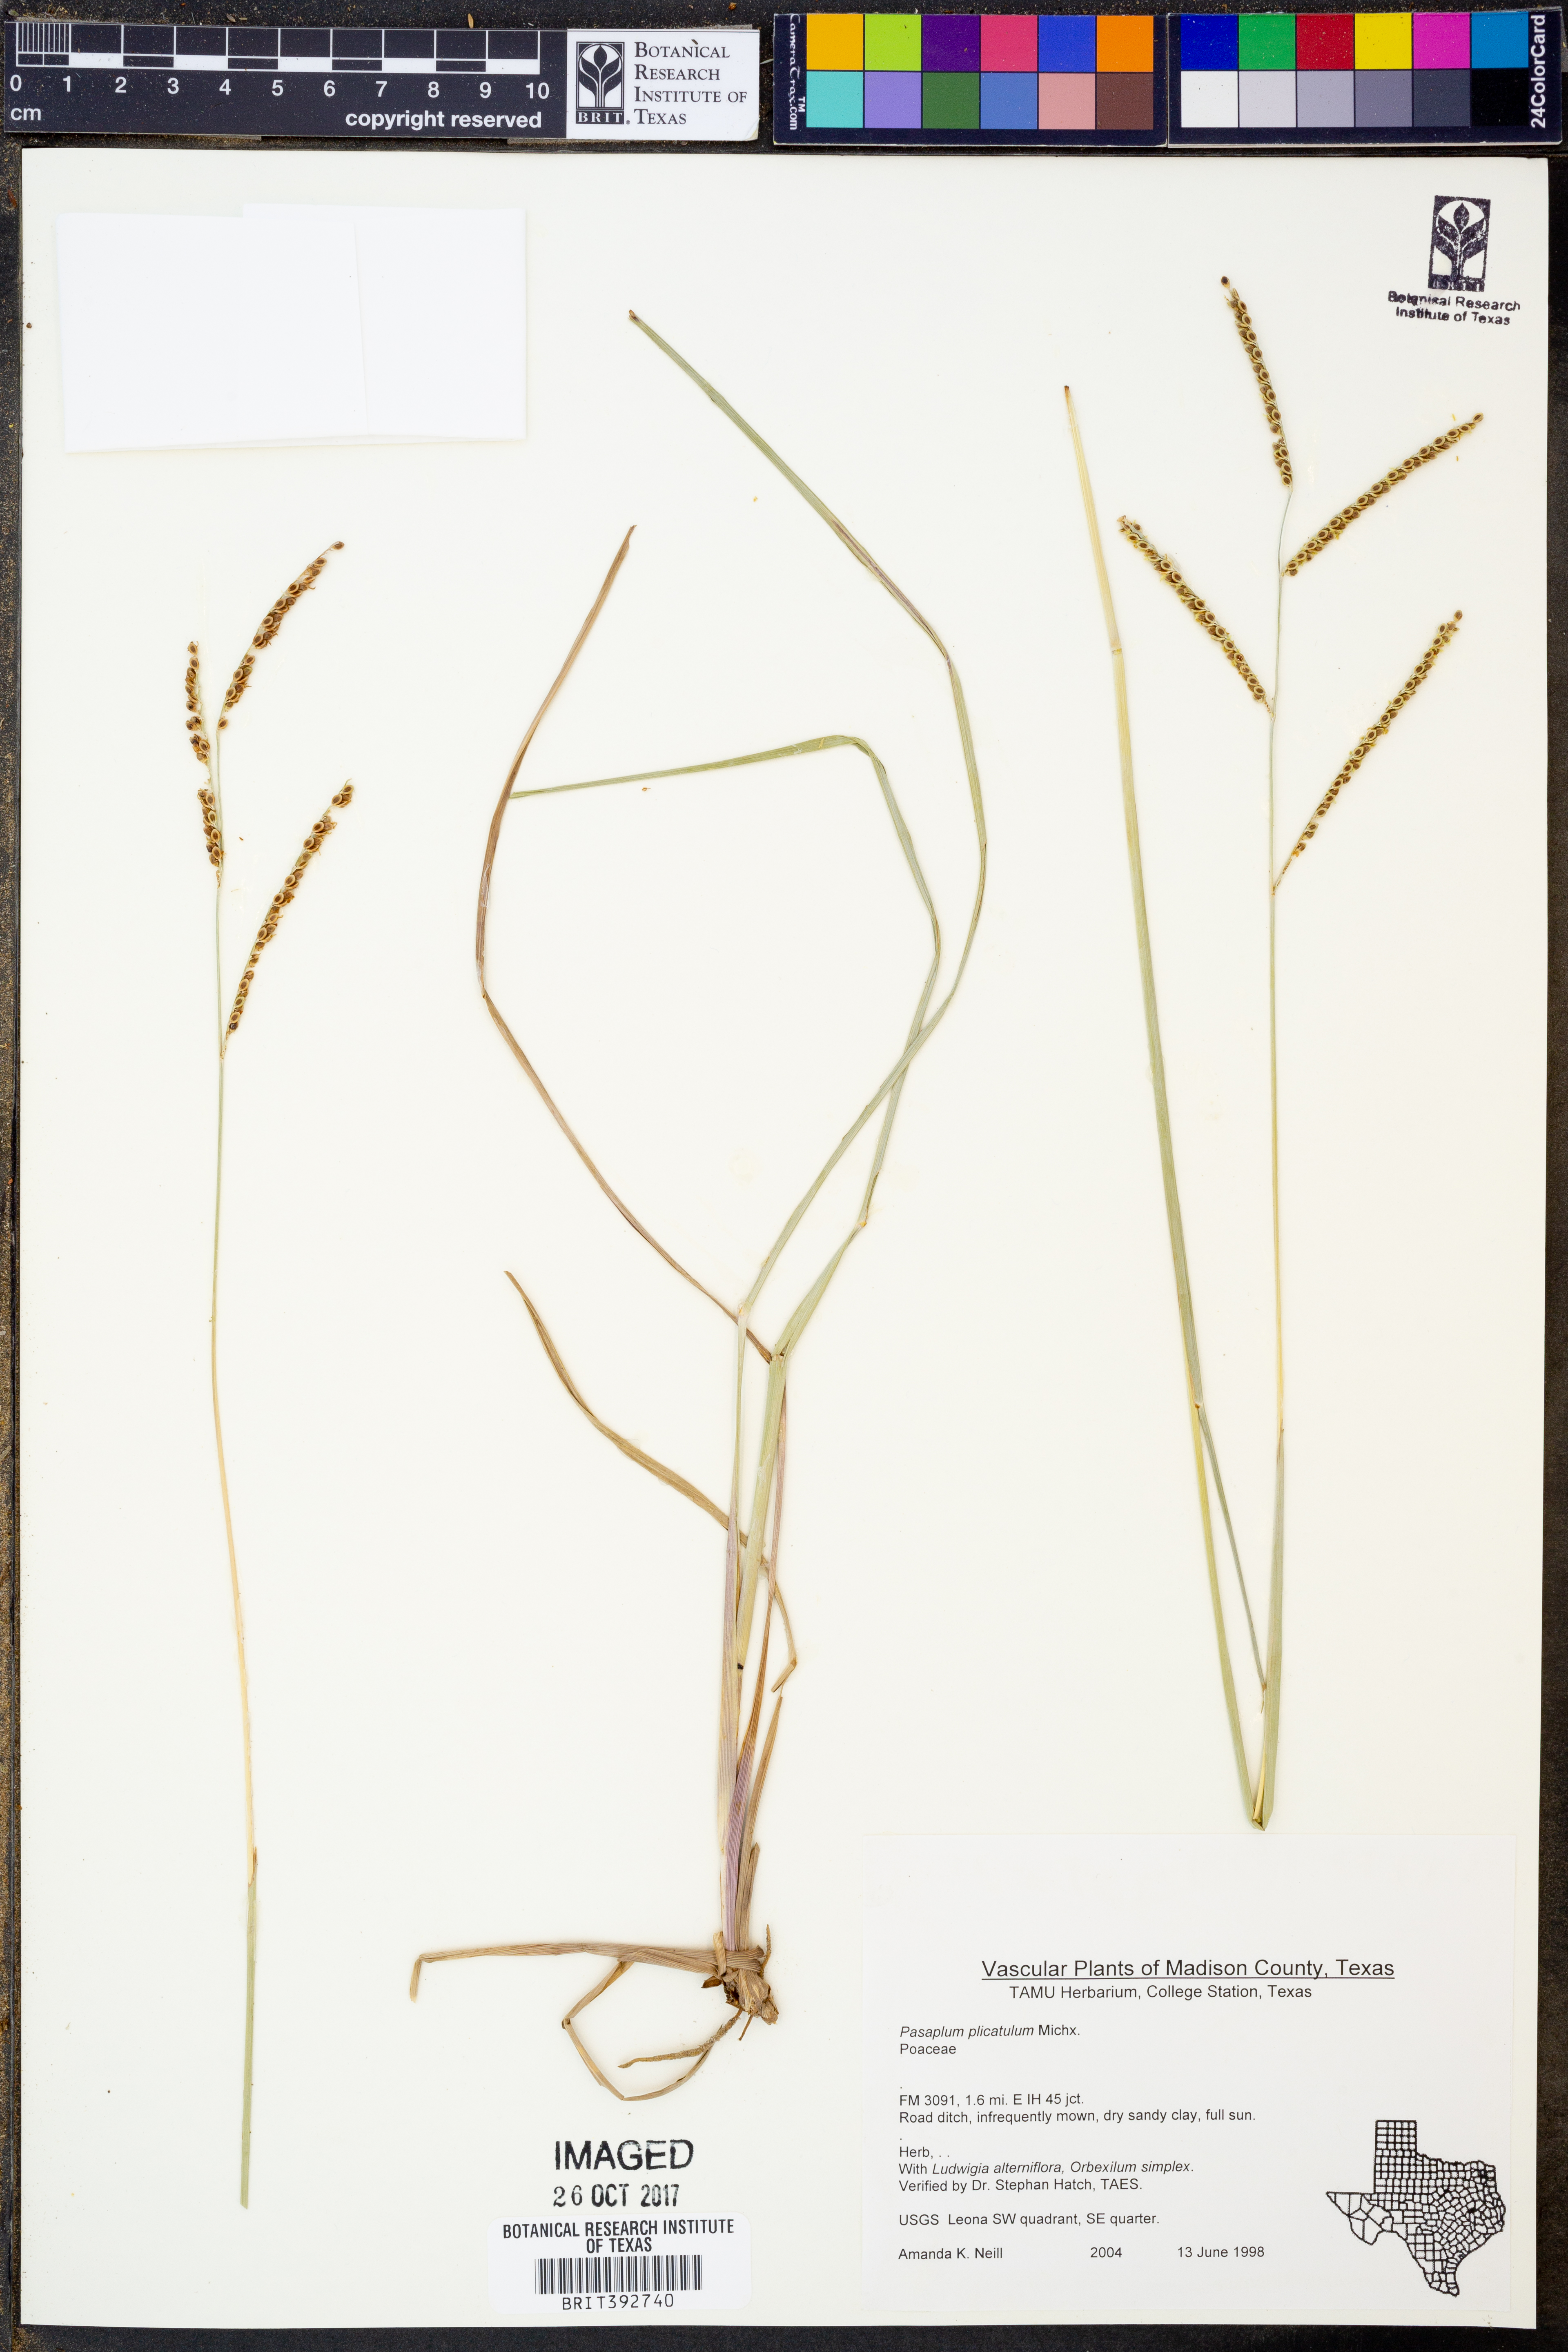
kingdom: Plantae
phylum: Tracheophyta
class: Liliopsida
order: Poales
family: Poaceae
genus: Paspalum
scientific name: Paspalum plicatulum
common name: Top paspalum
